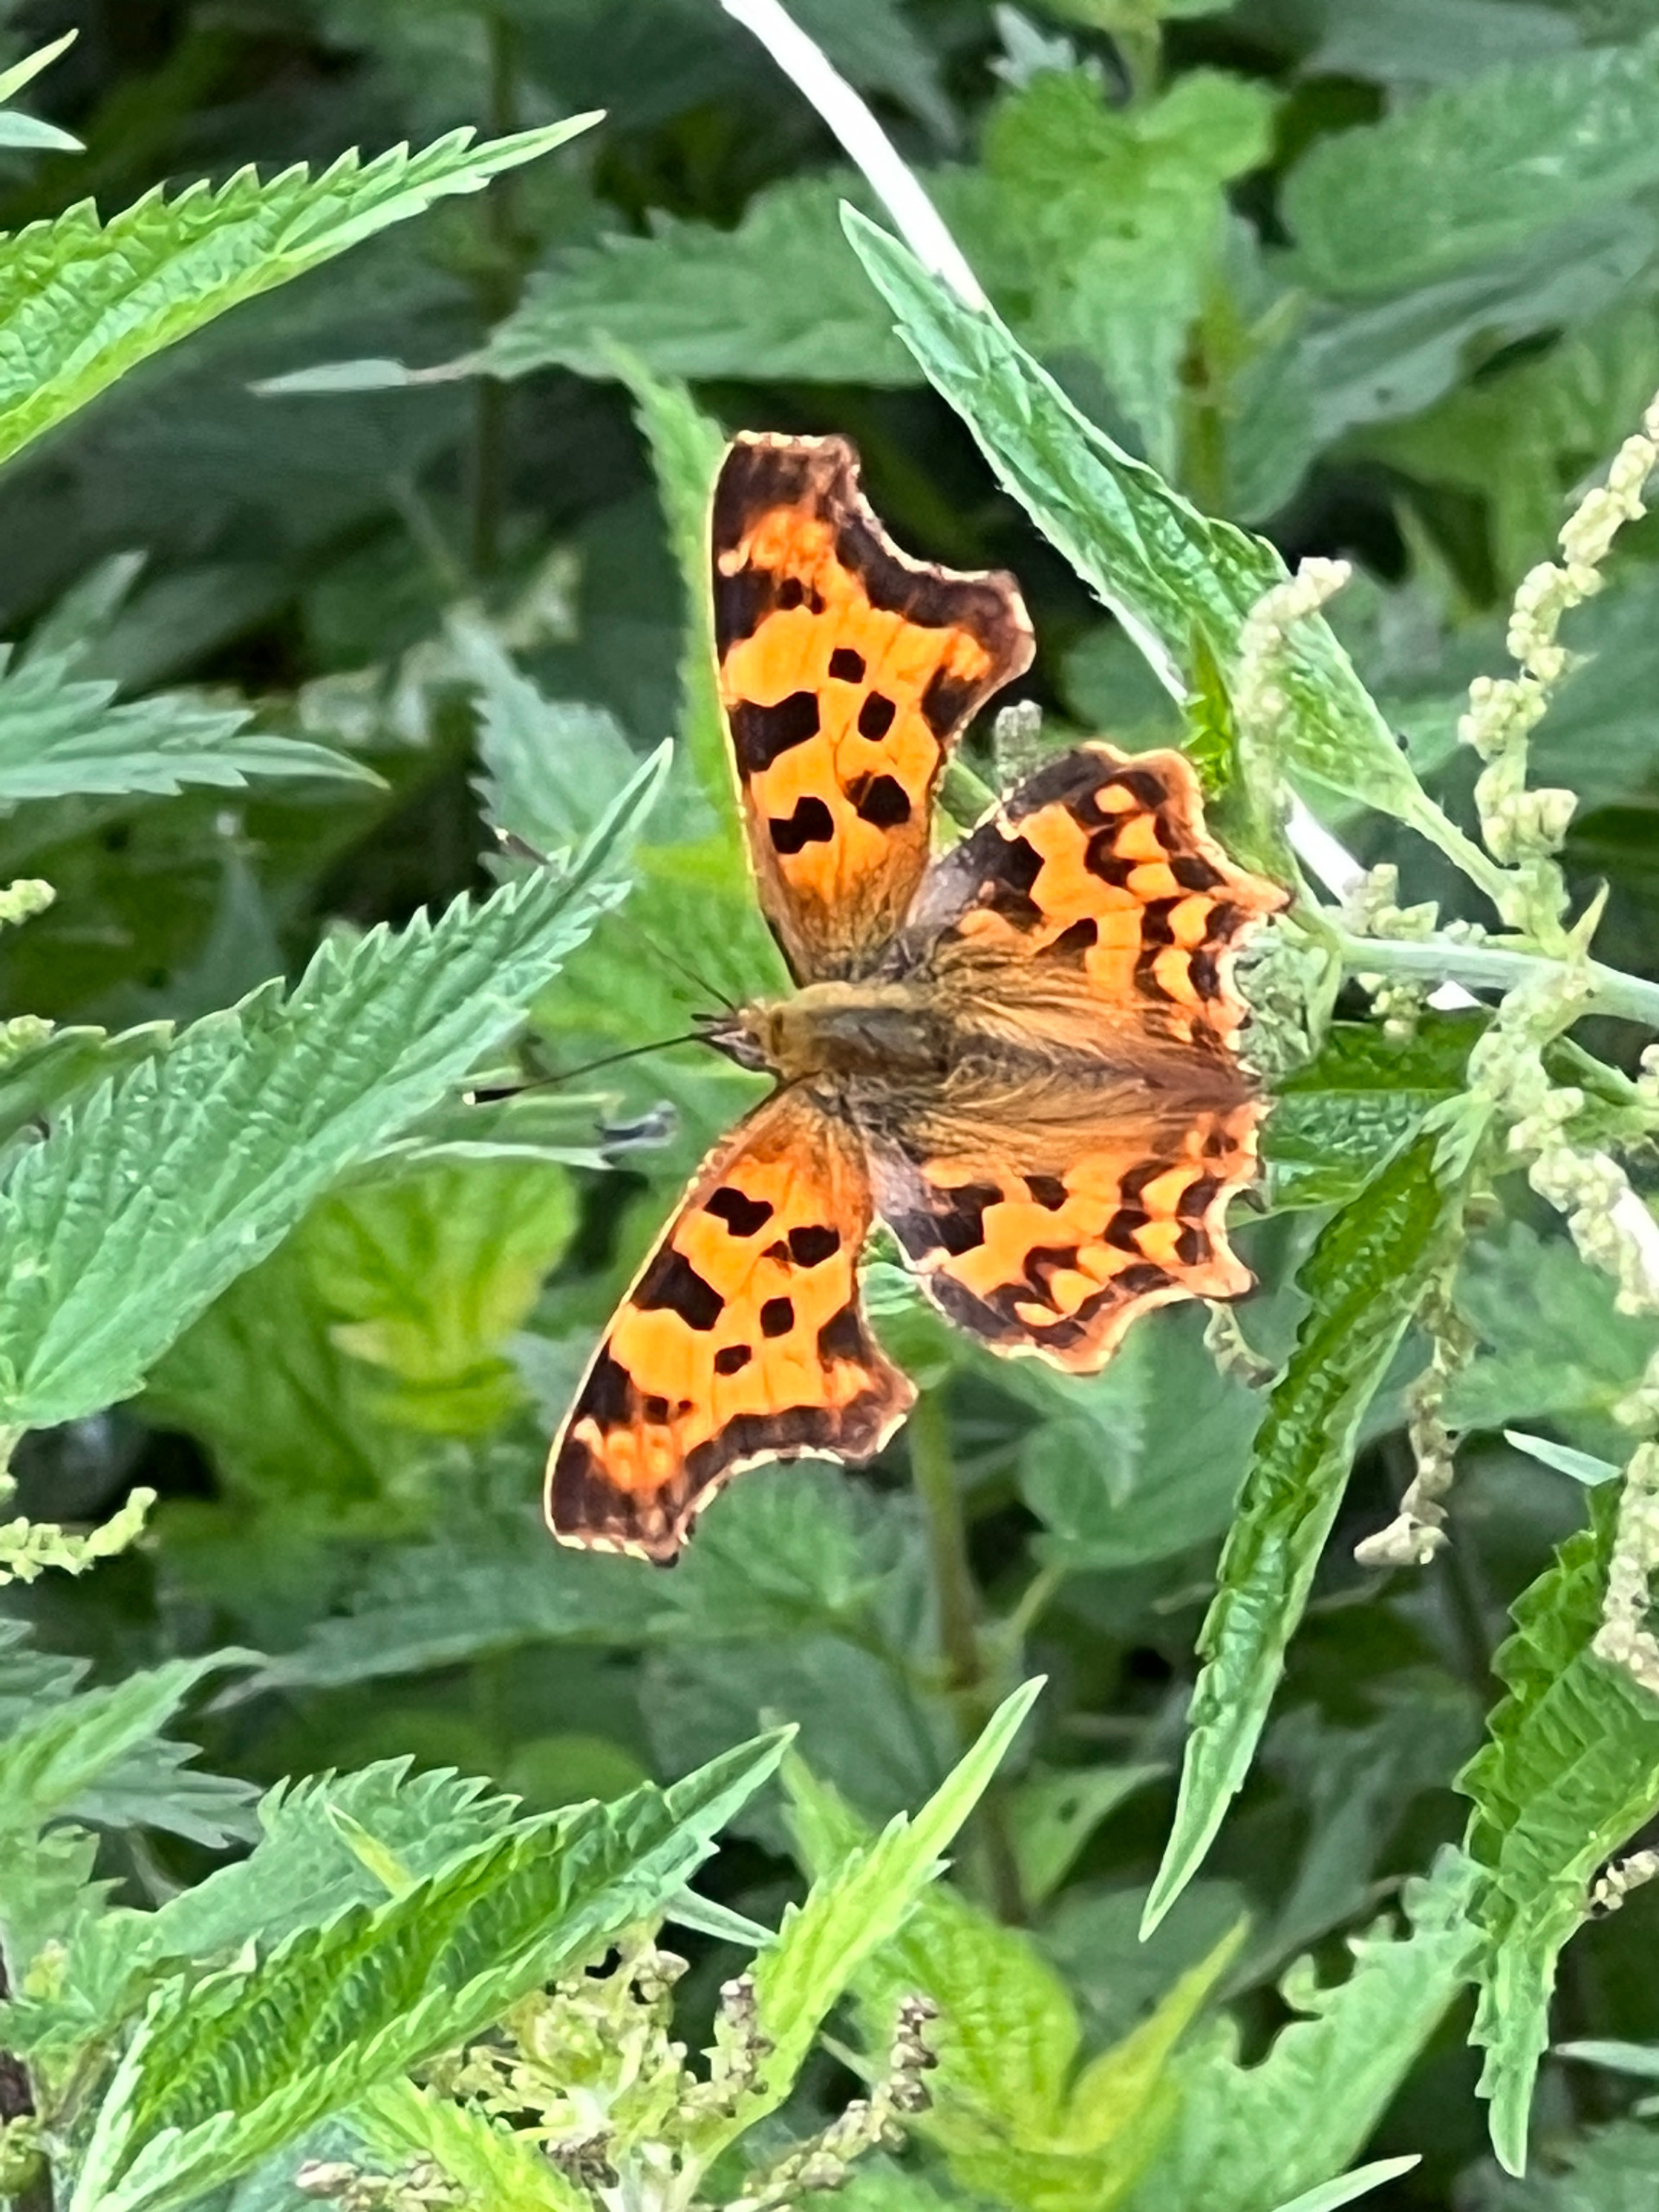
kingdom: Animalia
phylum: Arthropoda
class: Insecta
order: Lepidoptera
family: Nymphalidae
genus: Polygonia
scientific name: Polygonia c-album
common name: Det hvide C
